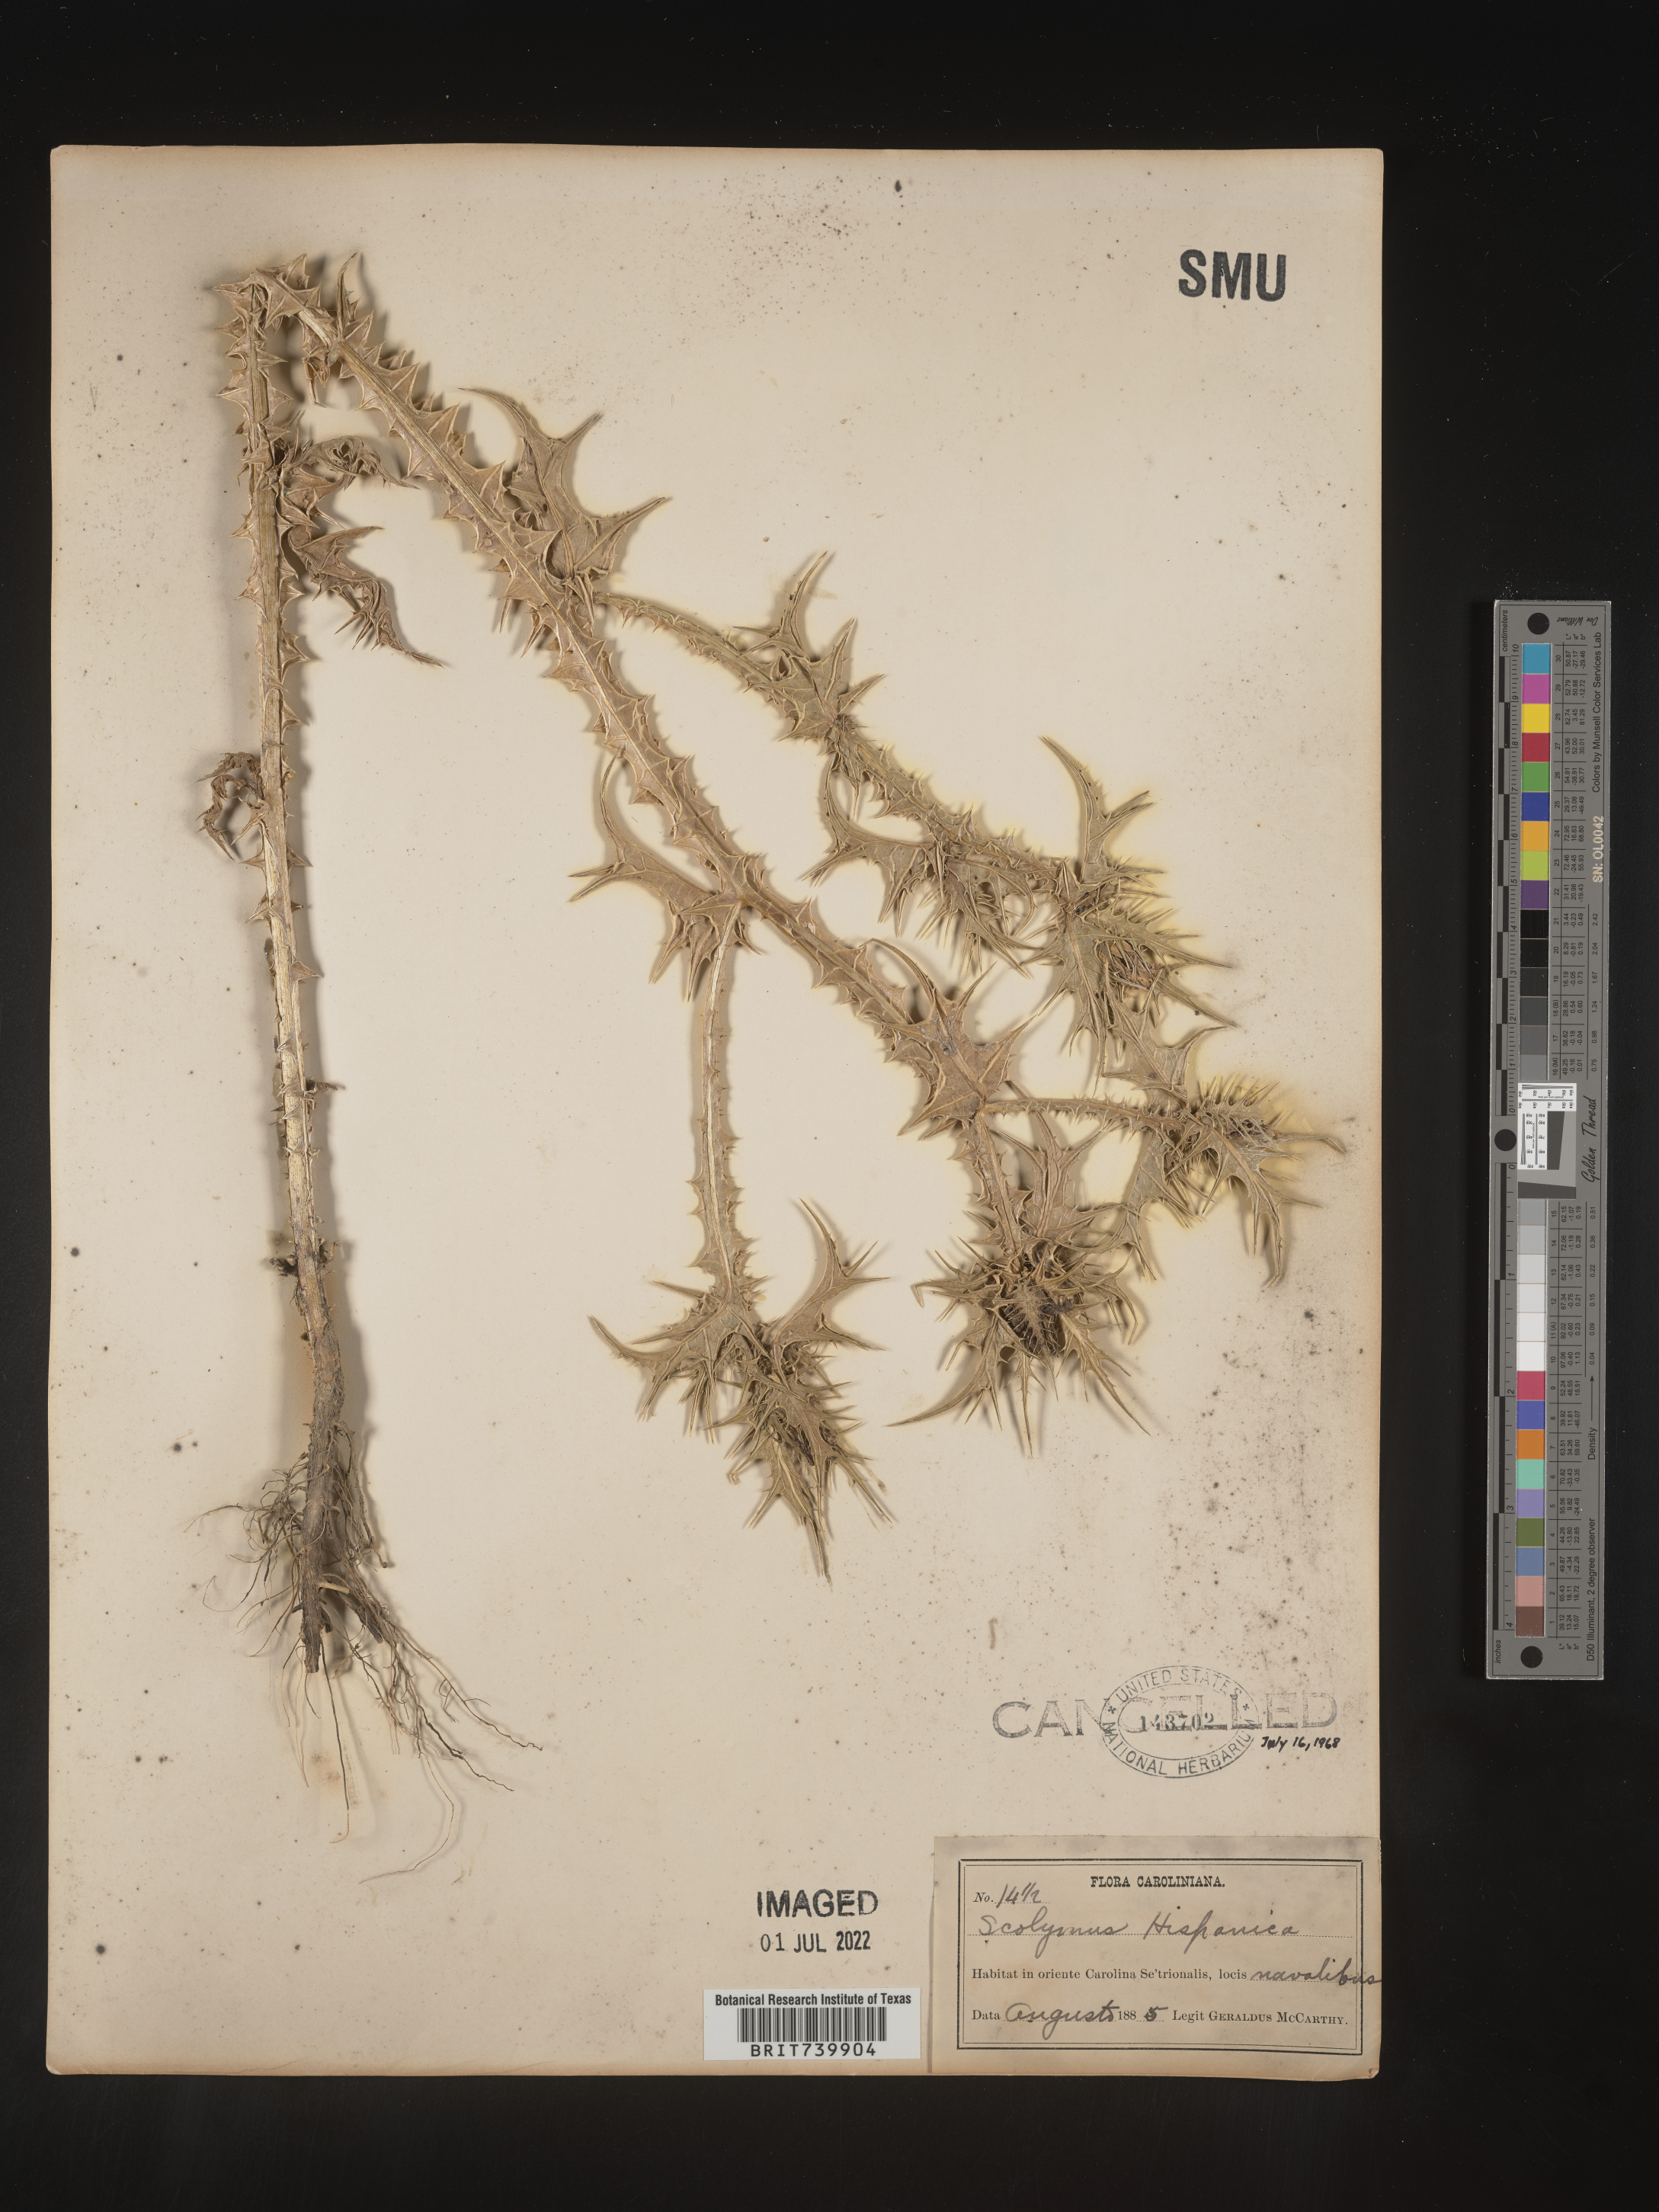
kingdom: Plantae
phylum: Tracheophyta
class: Magnoliopsida
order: Asterales
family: Asteraceae
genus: Scolymus
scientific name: Scolymus
